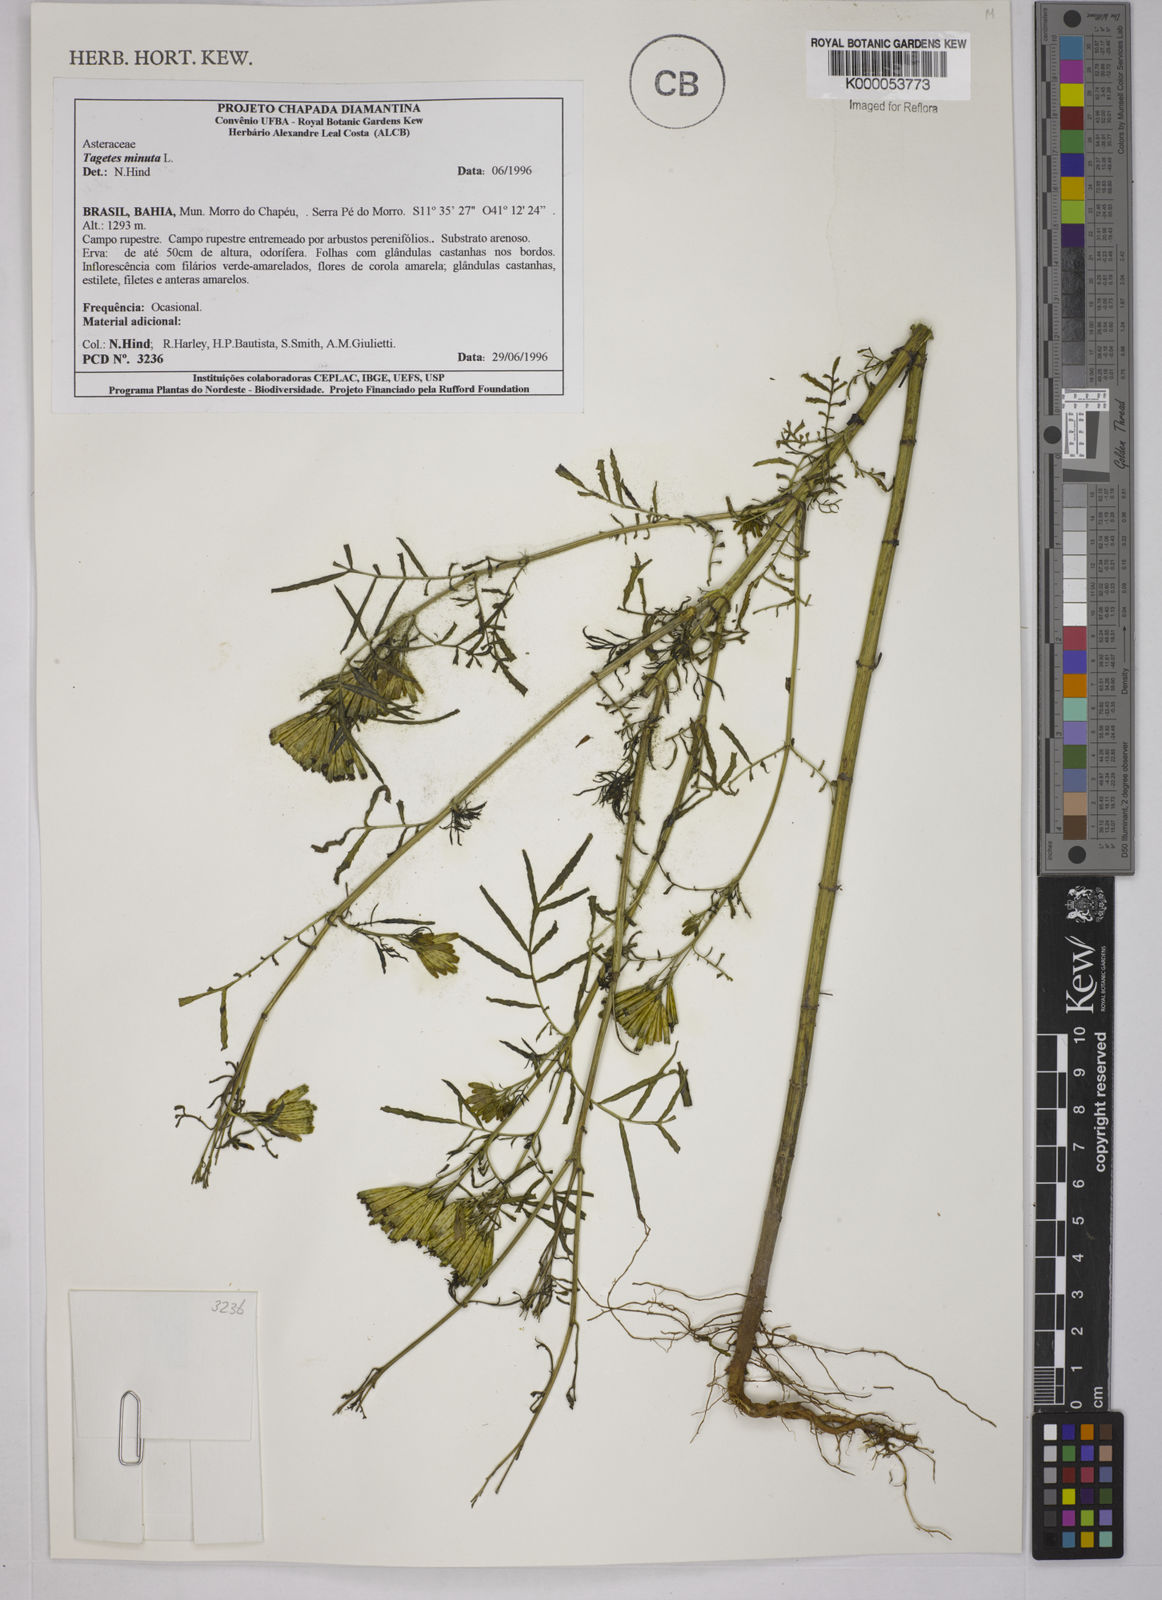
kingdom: Plantae
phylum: Tracheophyta
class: Magnoliopsida
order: Asterales
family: Asteraceae
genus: Tagetes
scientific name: Tagetes minuta
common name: Muster john henry
